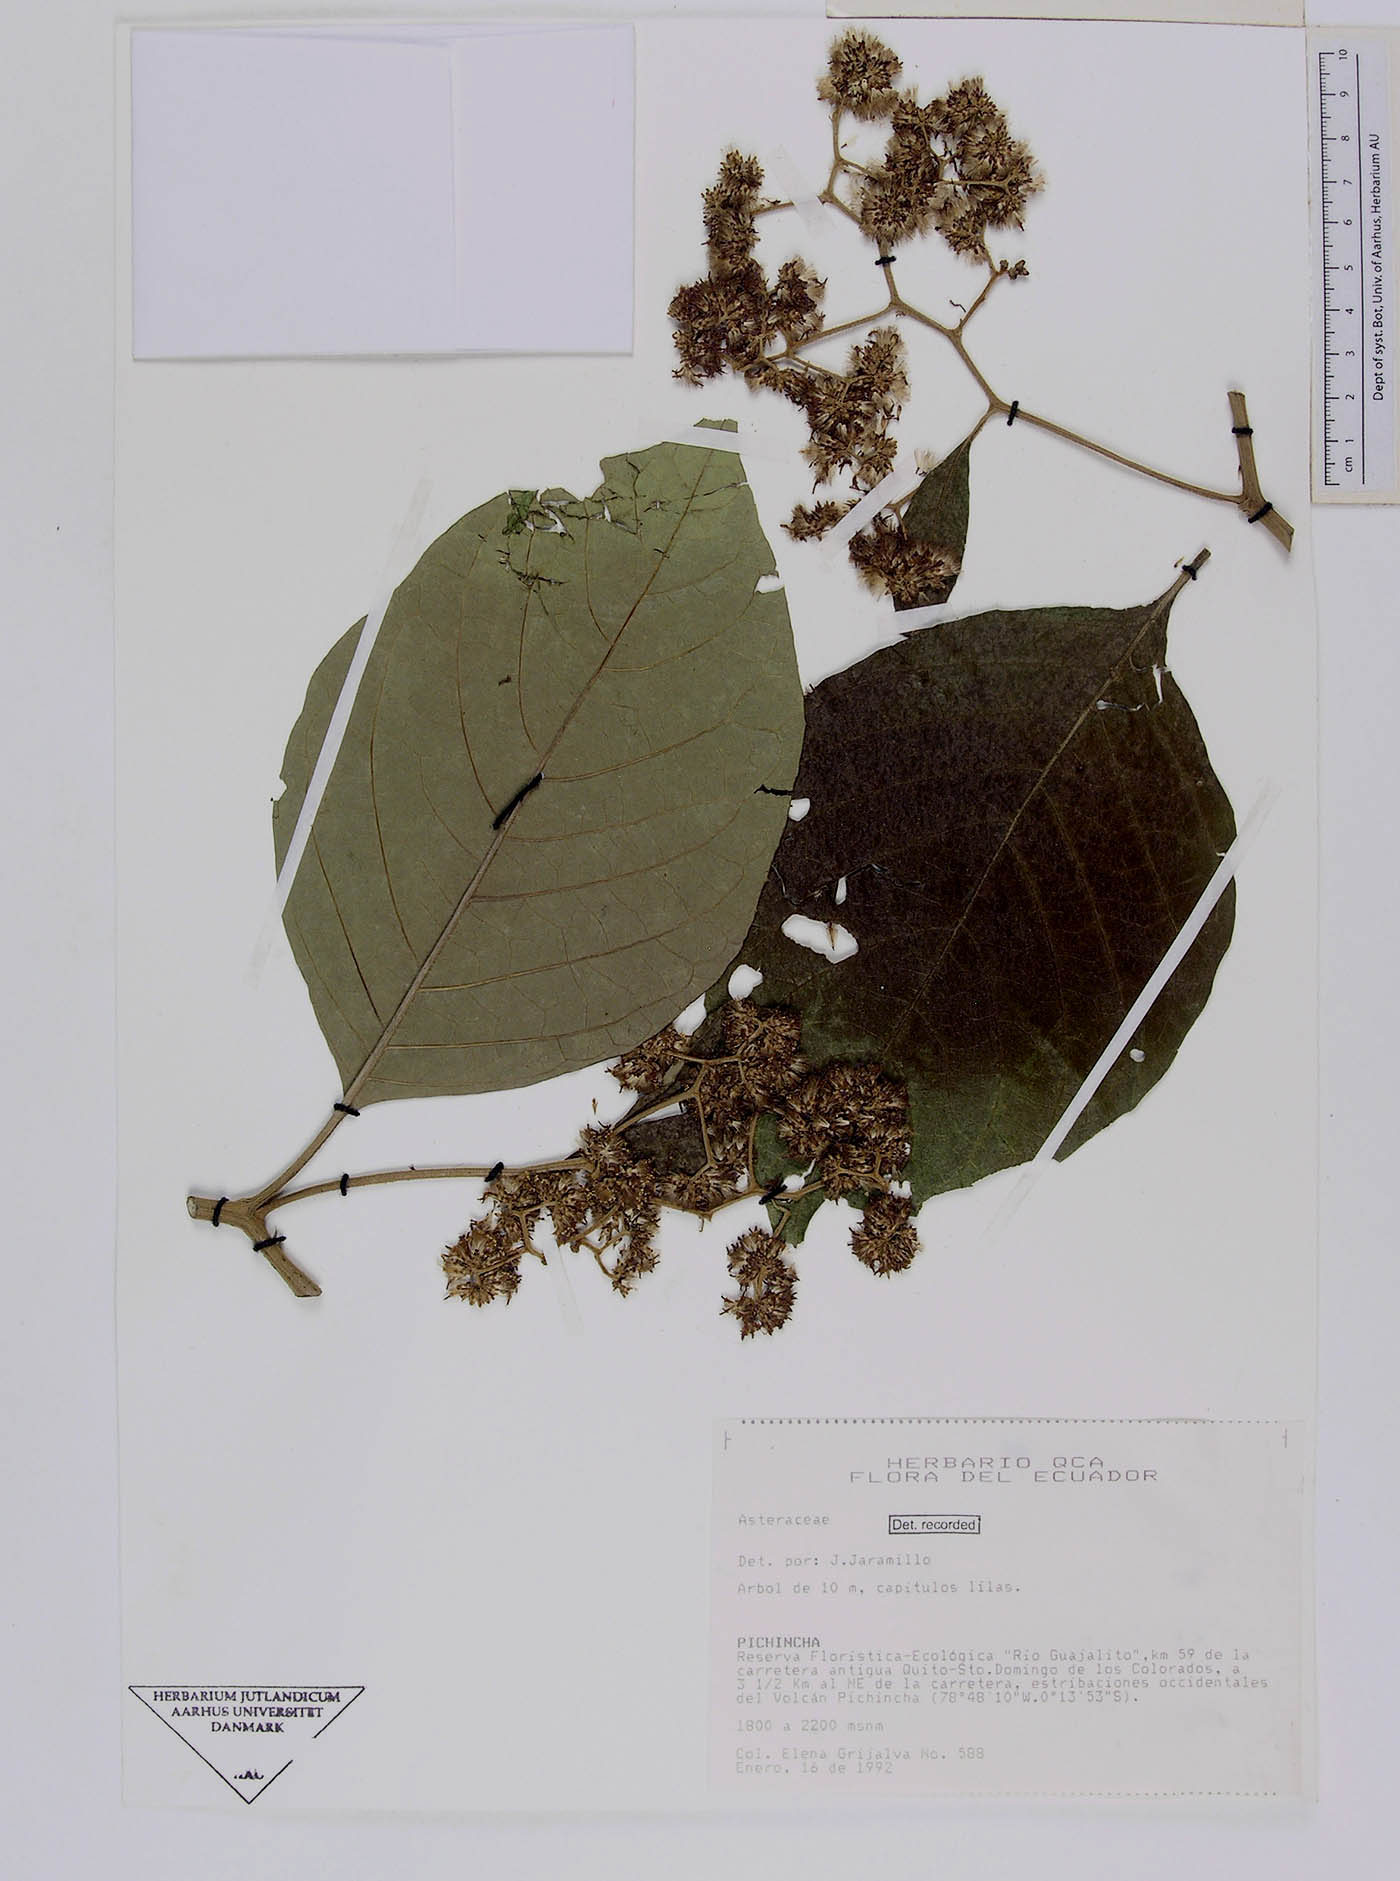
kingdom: Plantae
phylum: Tracheophyta
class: Magnoliopsida
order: Asterales
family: Asteraceae
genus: Critoniopsis
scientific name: Critoniopsis occidentalis
